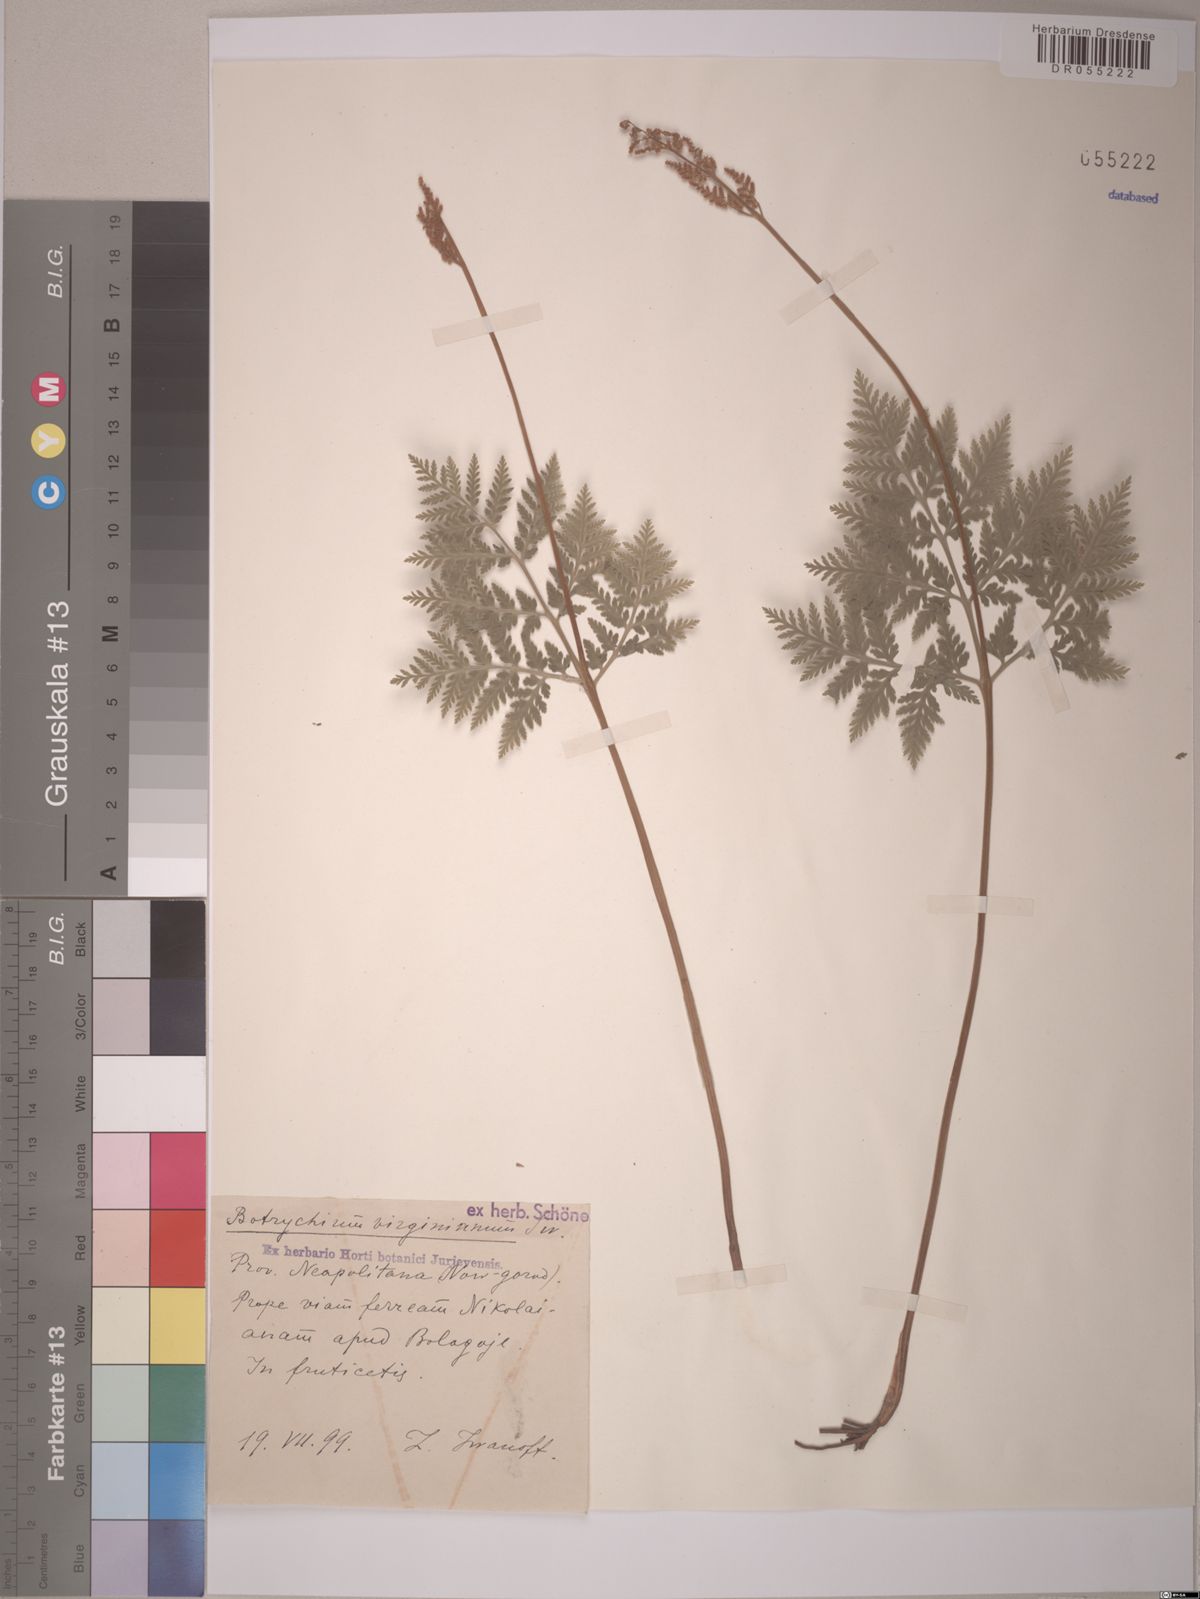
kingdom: Plantae
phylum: Tracheophyta
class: Polypodiopsida
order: Ophioglossales
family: Ophioglossaceae
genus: Botrypus
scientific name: Botrypus virginianus
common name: Common grapefern
